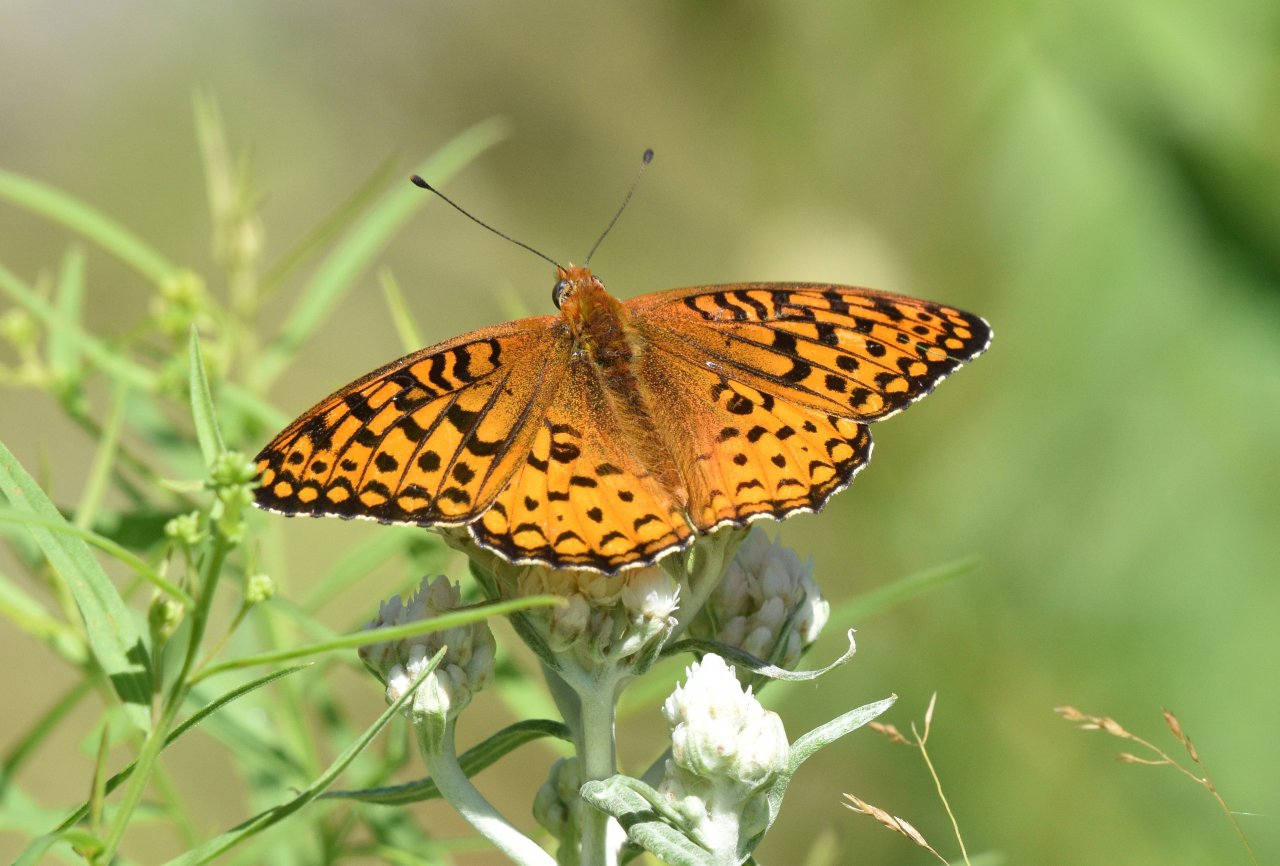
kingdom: Animalia
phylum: Arthropoda
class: Insecta
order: Lepidoptera
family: Nymphalidae
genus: Speyeria
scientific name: Speyeria atlantis
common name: Atlantis Fritillary
